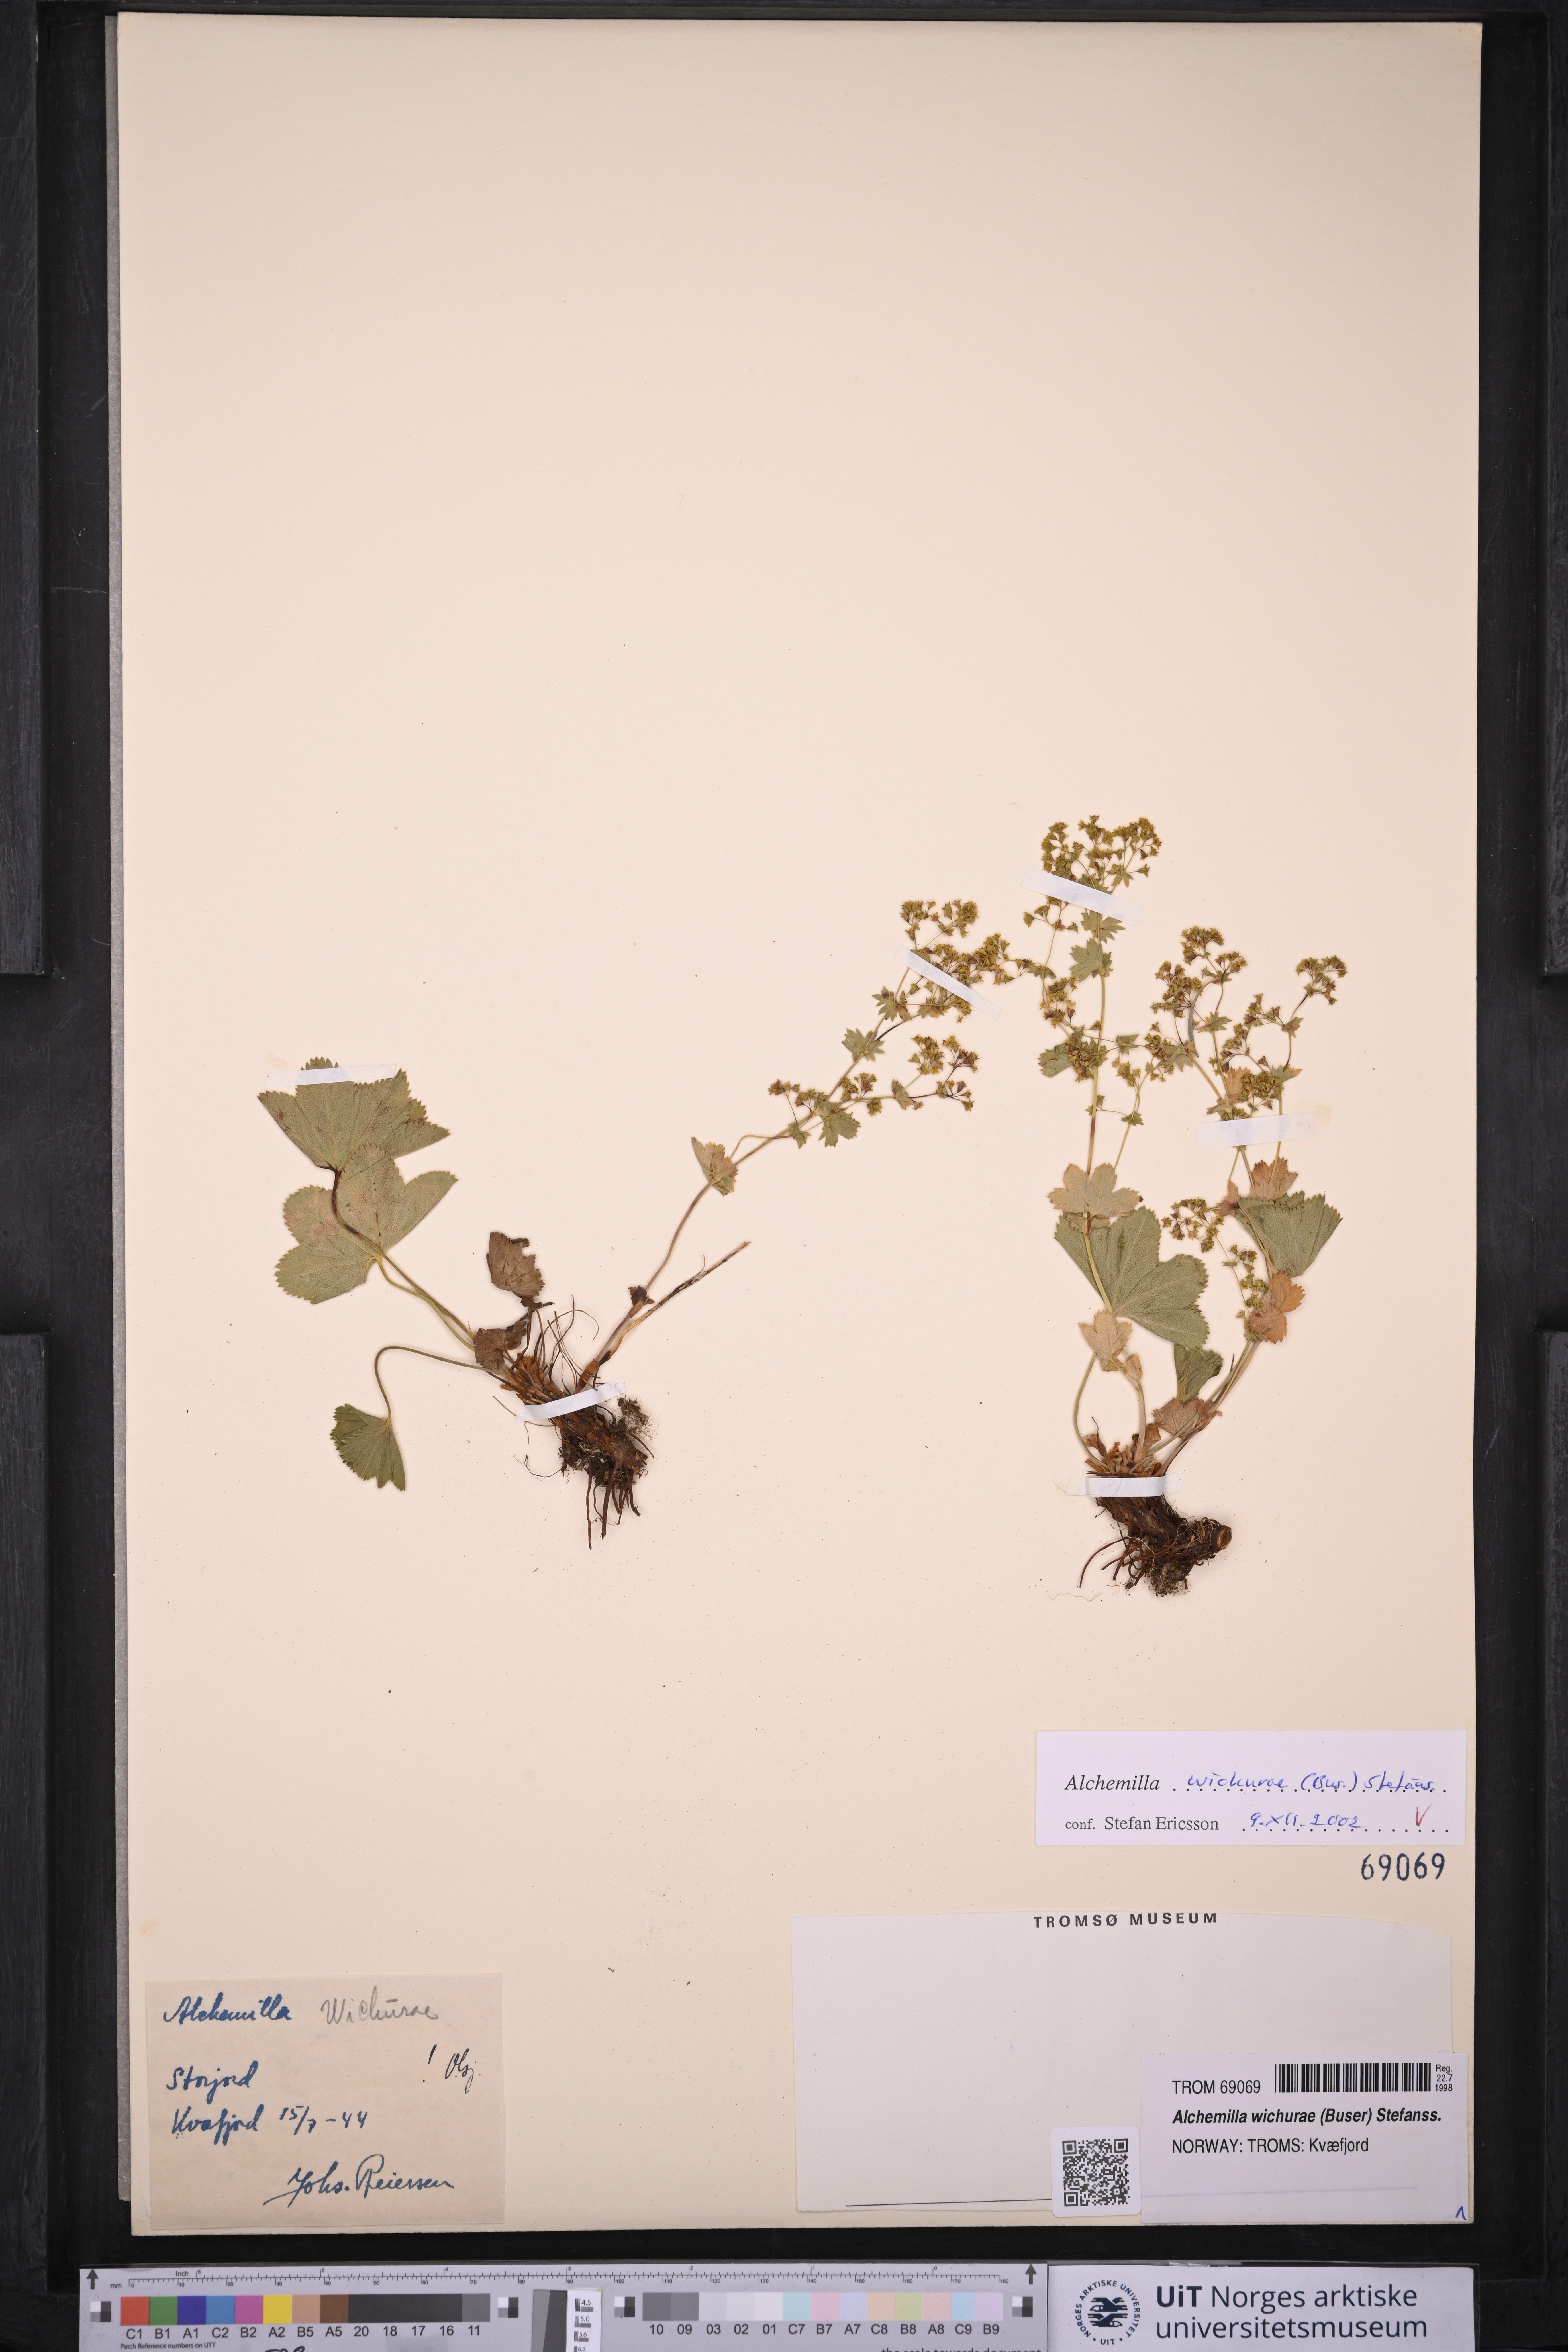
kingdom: Plantae
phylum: Tracheophyta
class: Magnoliopsida
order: Rosales
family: Rosaceae
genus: Alchemilla
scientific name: Alchemilla wichurae
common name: Rock lady's mantle
